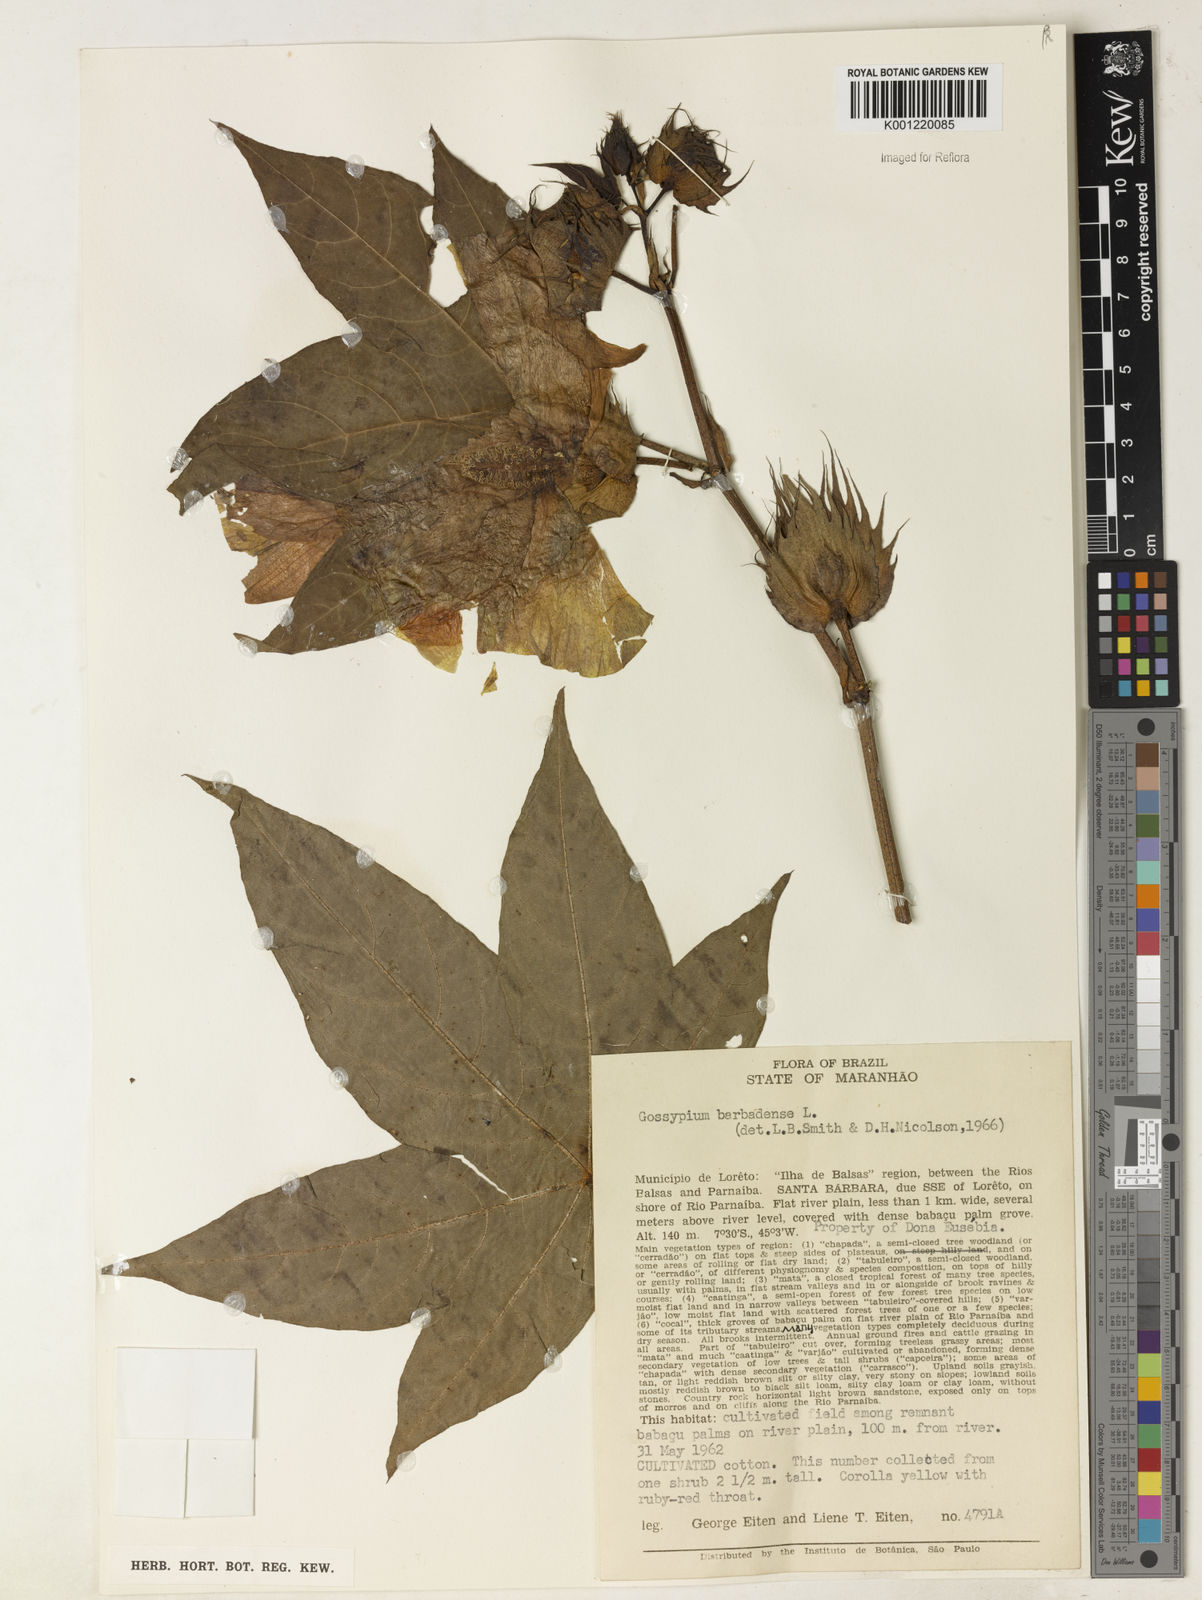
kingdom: Plantae
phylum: Tracheophyta
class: Magnoliopsida
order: Malvales
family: Malvaceae
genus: Gossypium
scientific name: Gossypium barbadense
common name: Creole cotton
